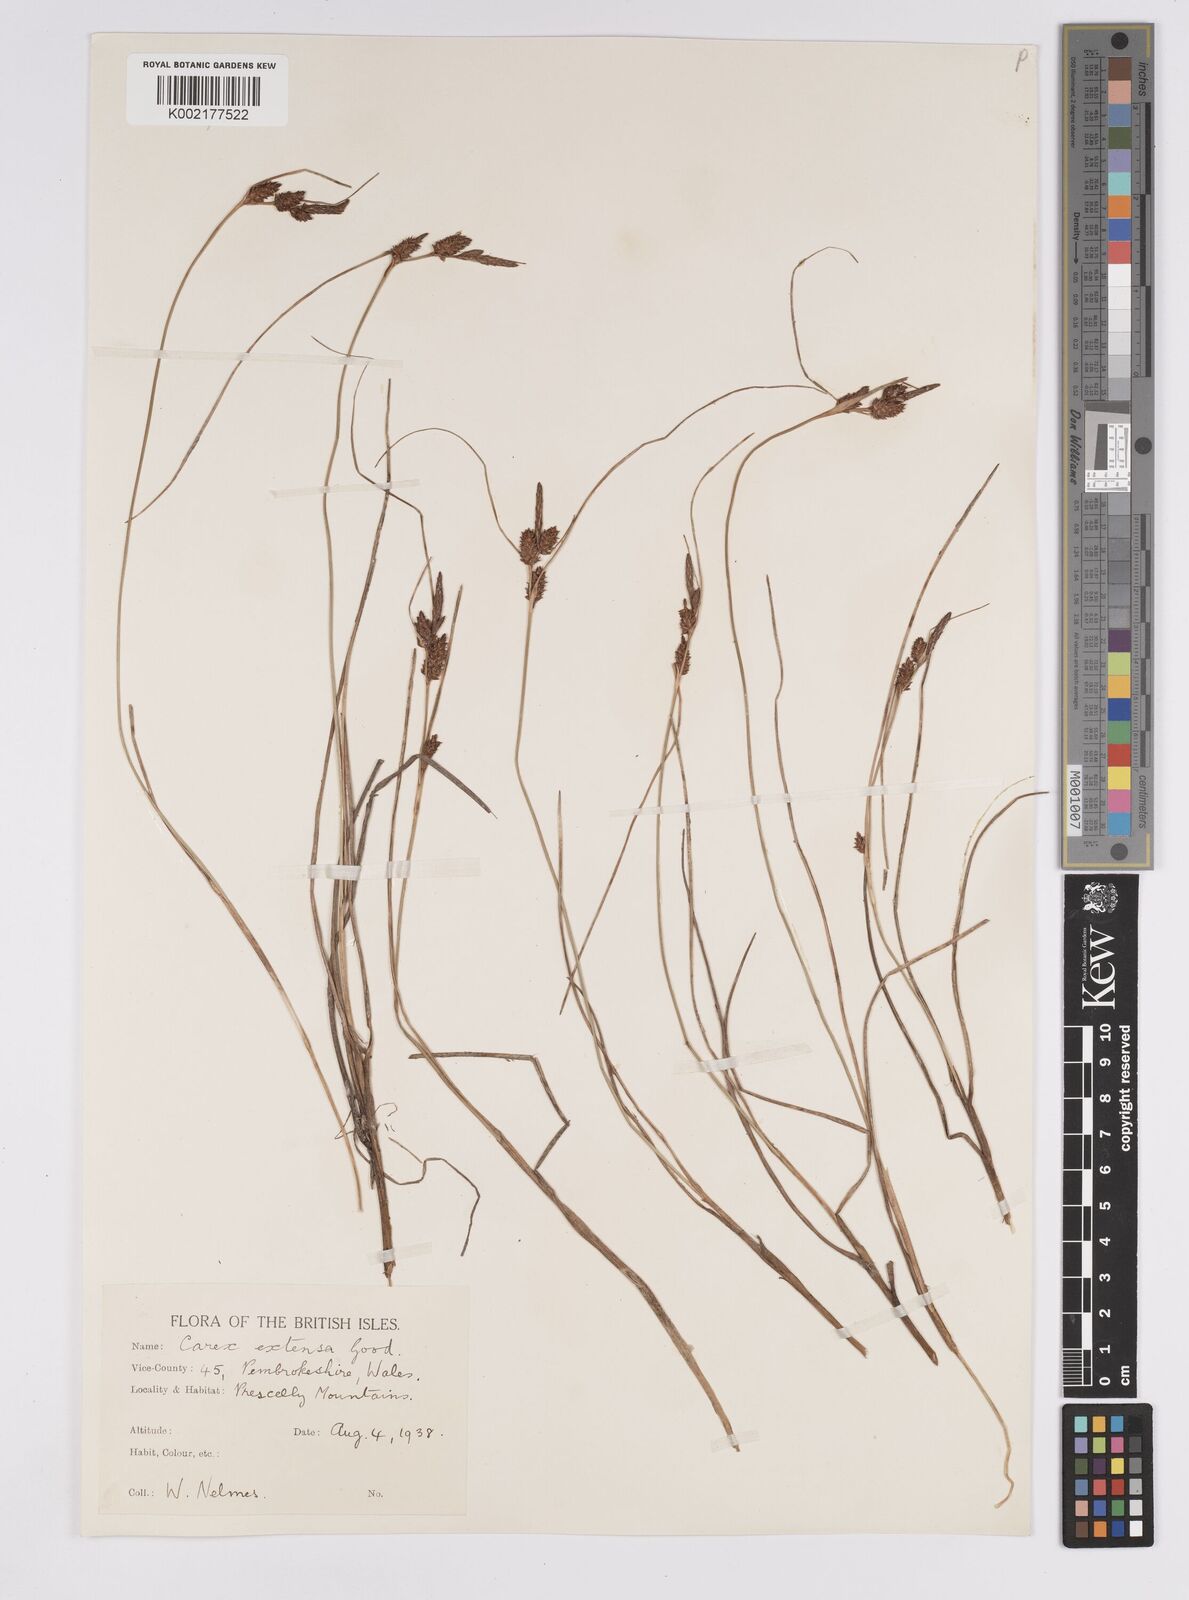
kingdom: Plantae
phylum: Tracheophyta
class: Liliopsida
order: Poales
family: Cyperaceae
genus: Carex
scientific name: Carex extensa
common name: Long-bracted sedge
